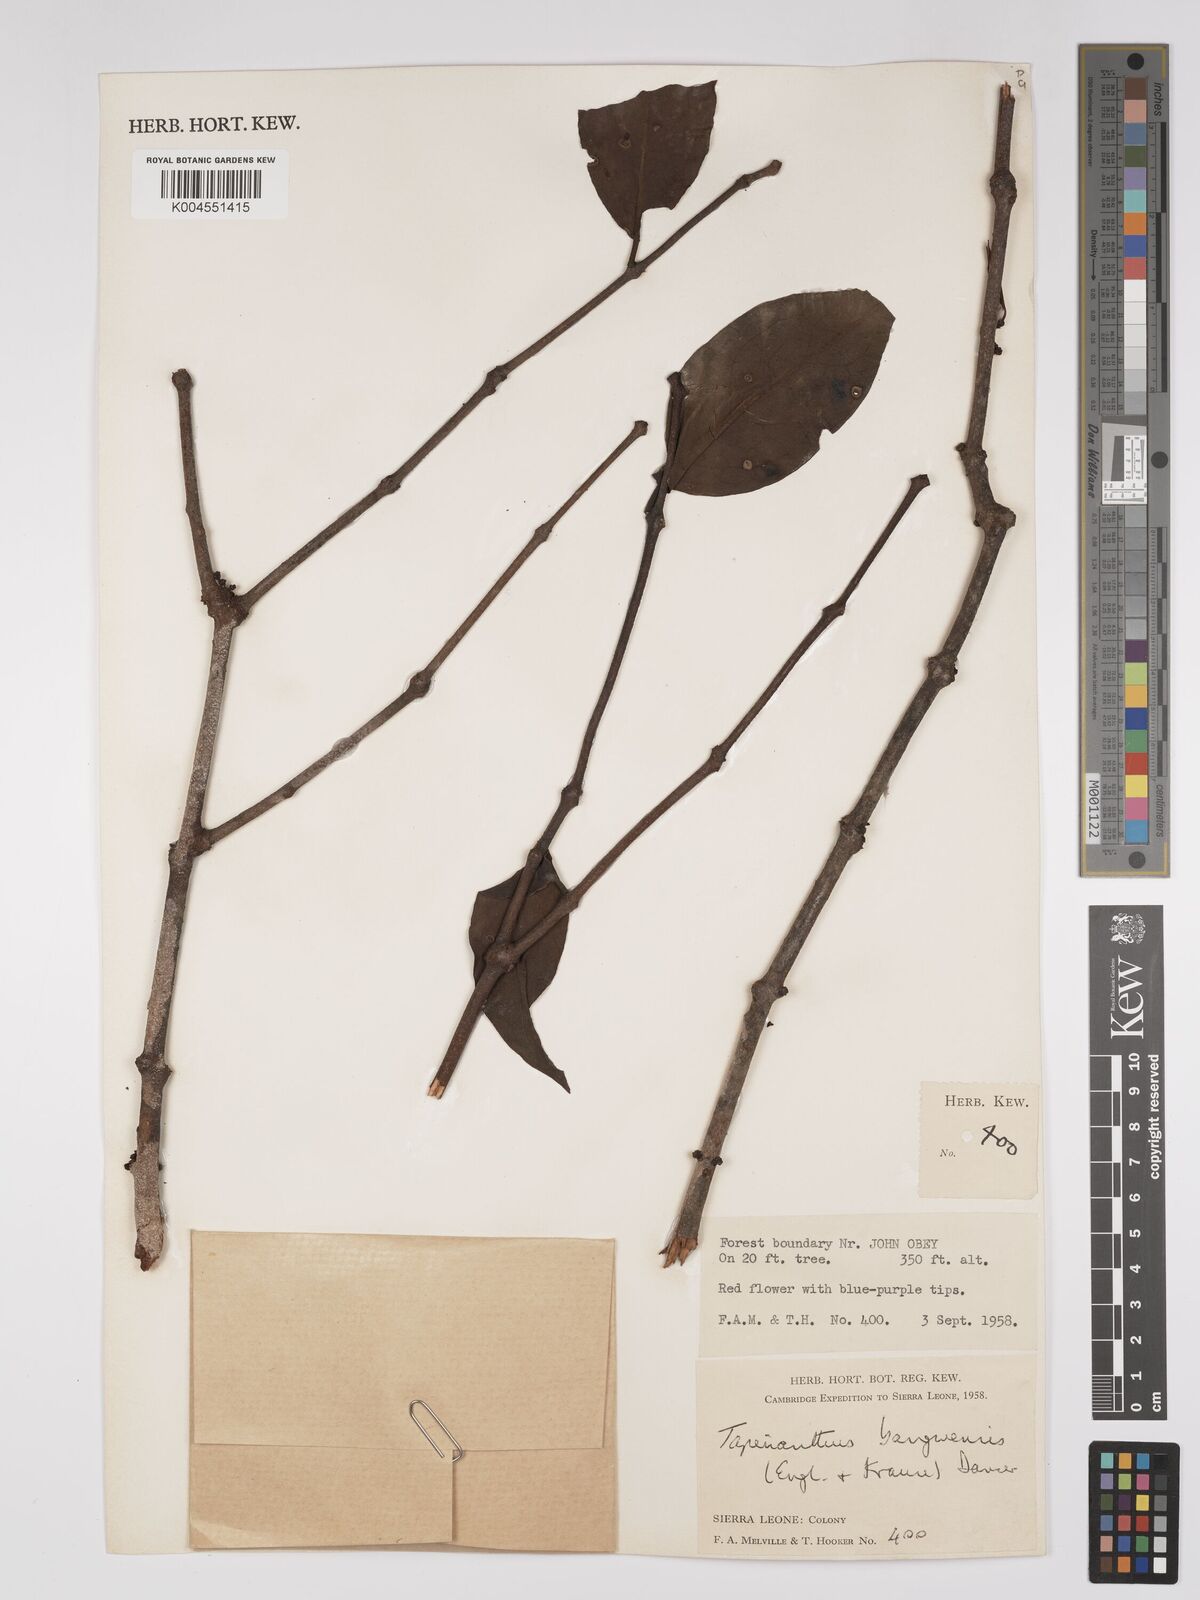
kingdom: Plantae
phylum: Tracheophyta
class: Magnoliopsida
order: Santalales
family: Loranthaceae
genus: Tapinanthus
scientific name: Tapinanthus bangwensis
